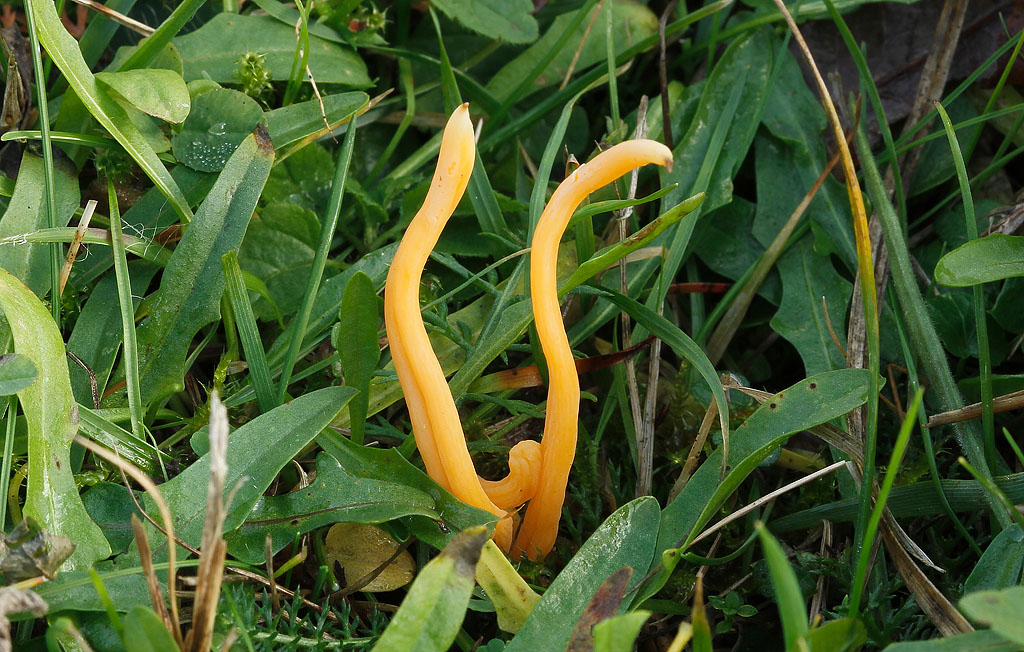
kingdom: Fungi
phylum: Basidiomycota
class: Agaricomycetes
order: Agaricales
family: Clavariaceae
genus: Clavulinopsis
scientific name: Clavulinopsis luteoalba
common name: abrikos-køllesvamp
